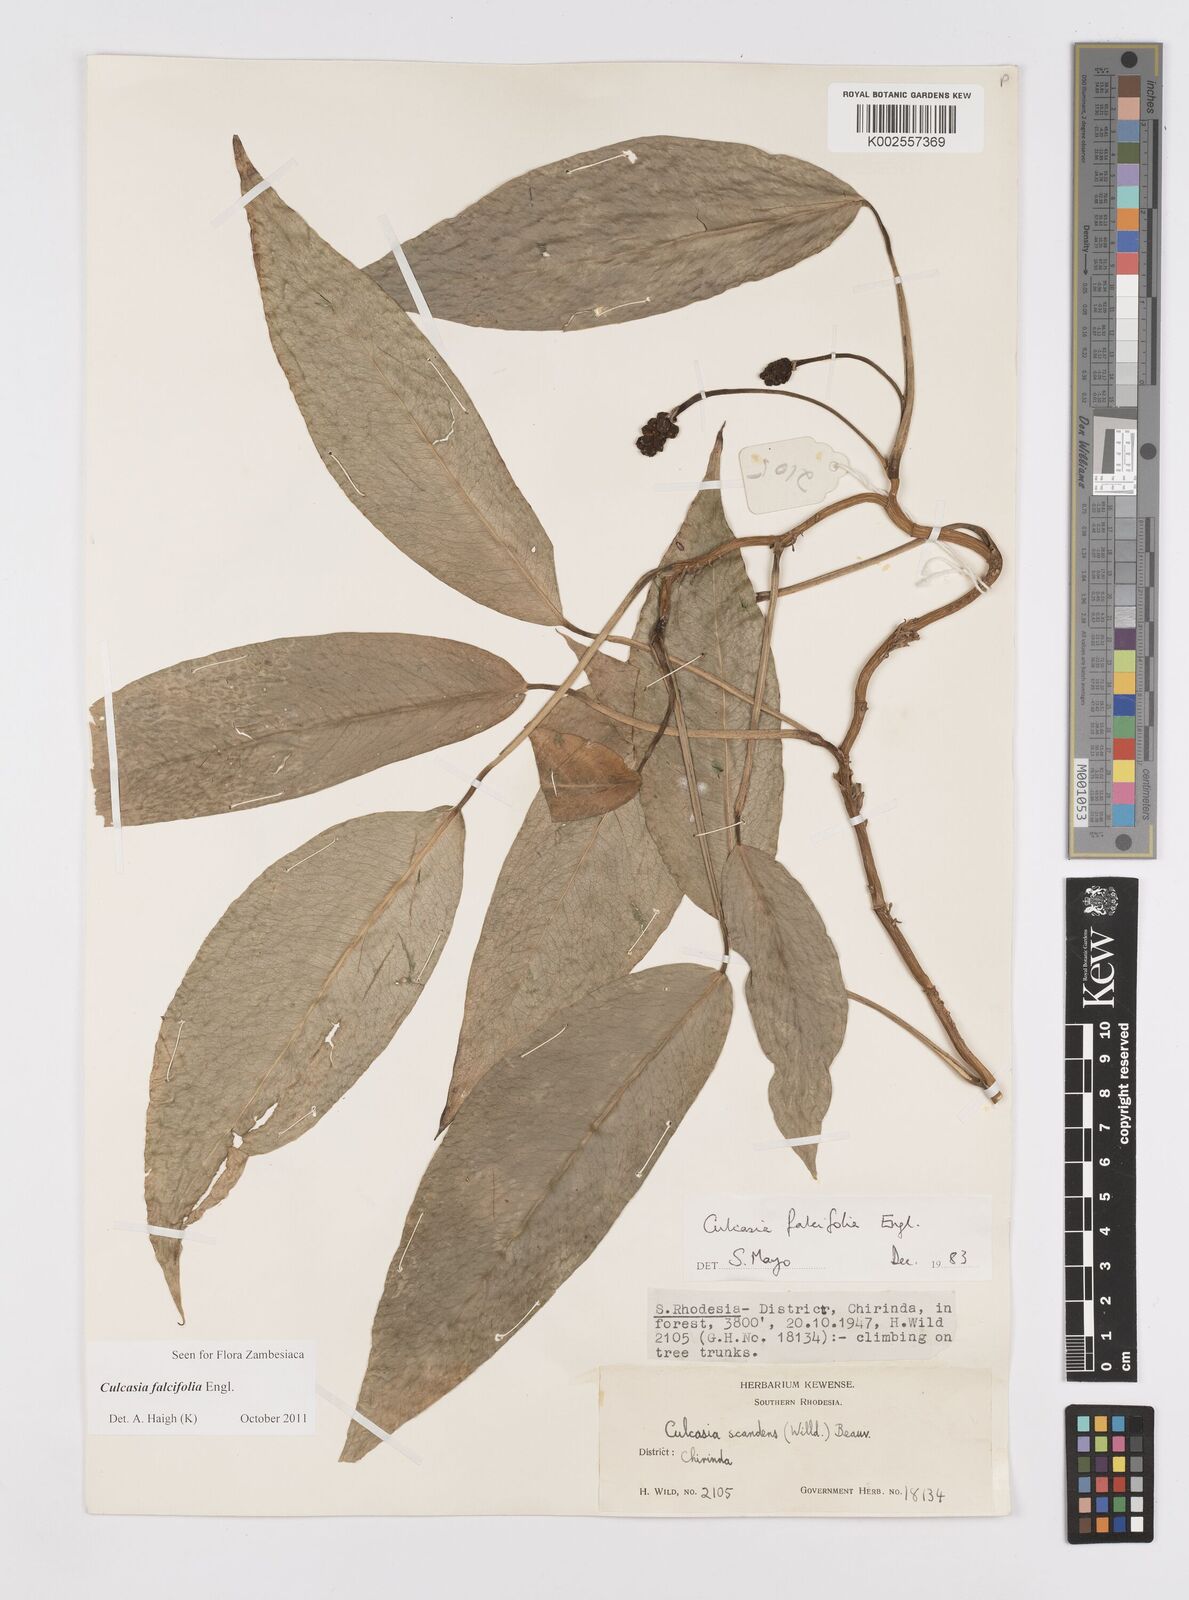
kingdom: Plantae
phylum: Tracheophyta
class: Liliopsida
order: Alismatales
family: Araceae
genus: Culcasia
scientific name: Culcasia falcifolia
